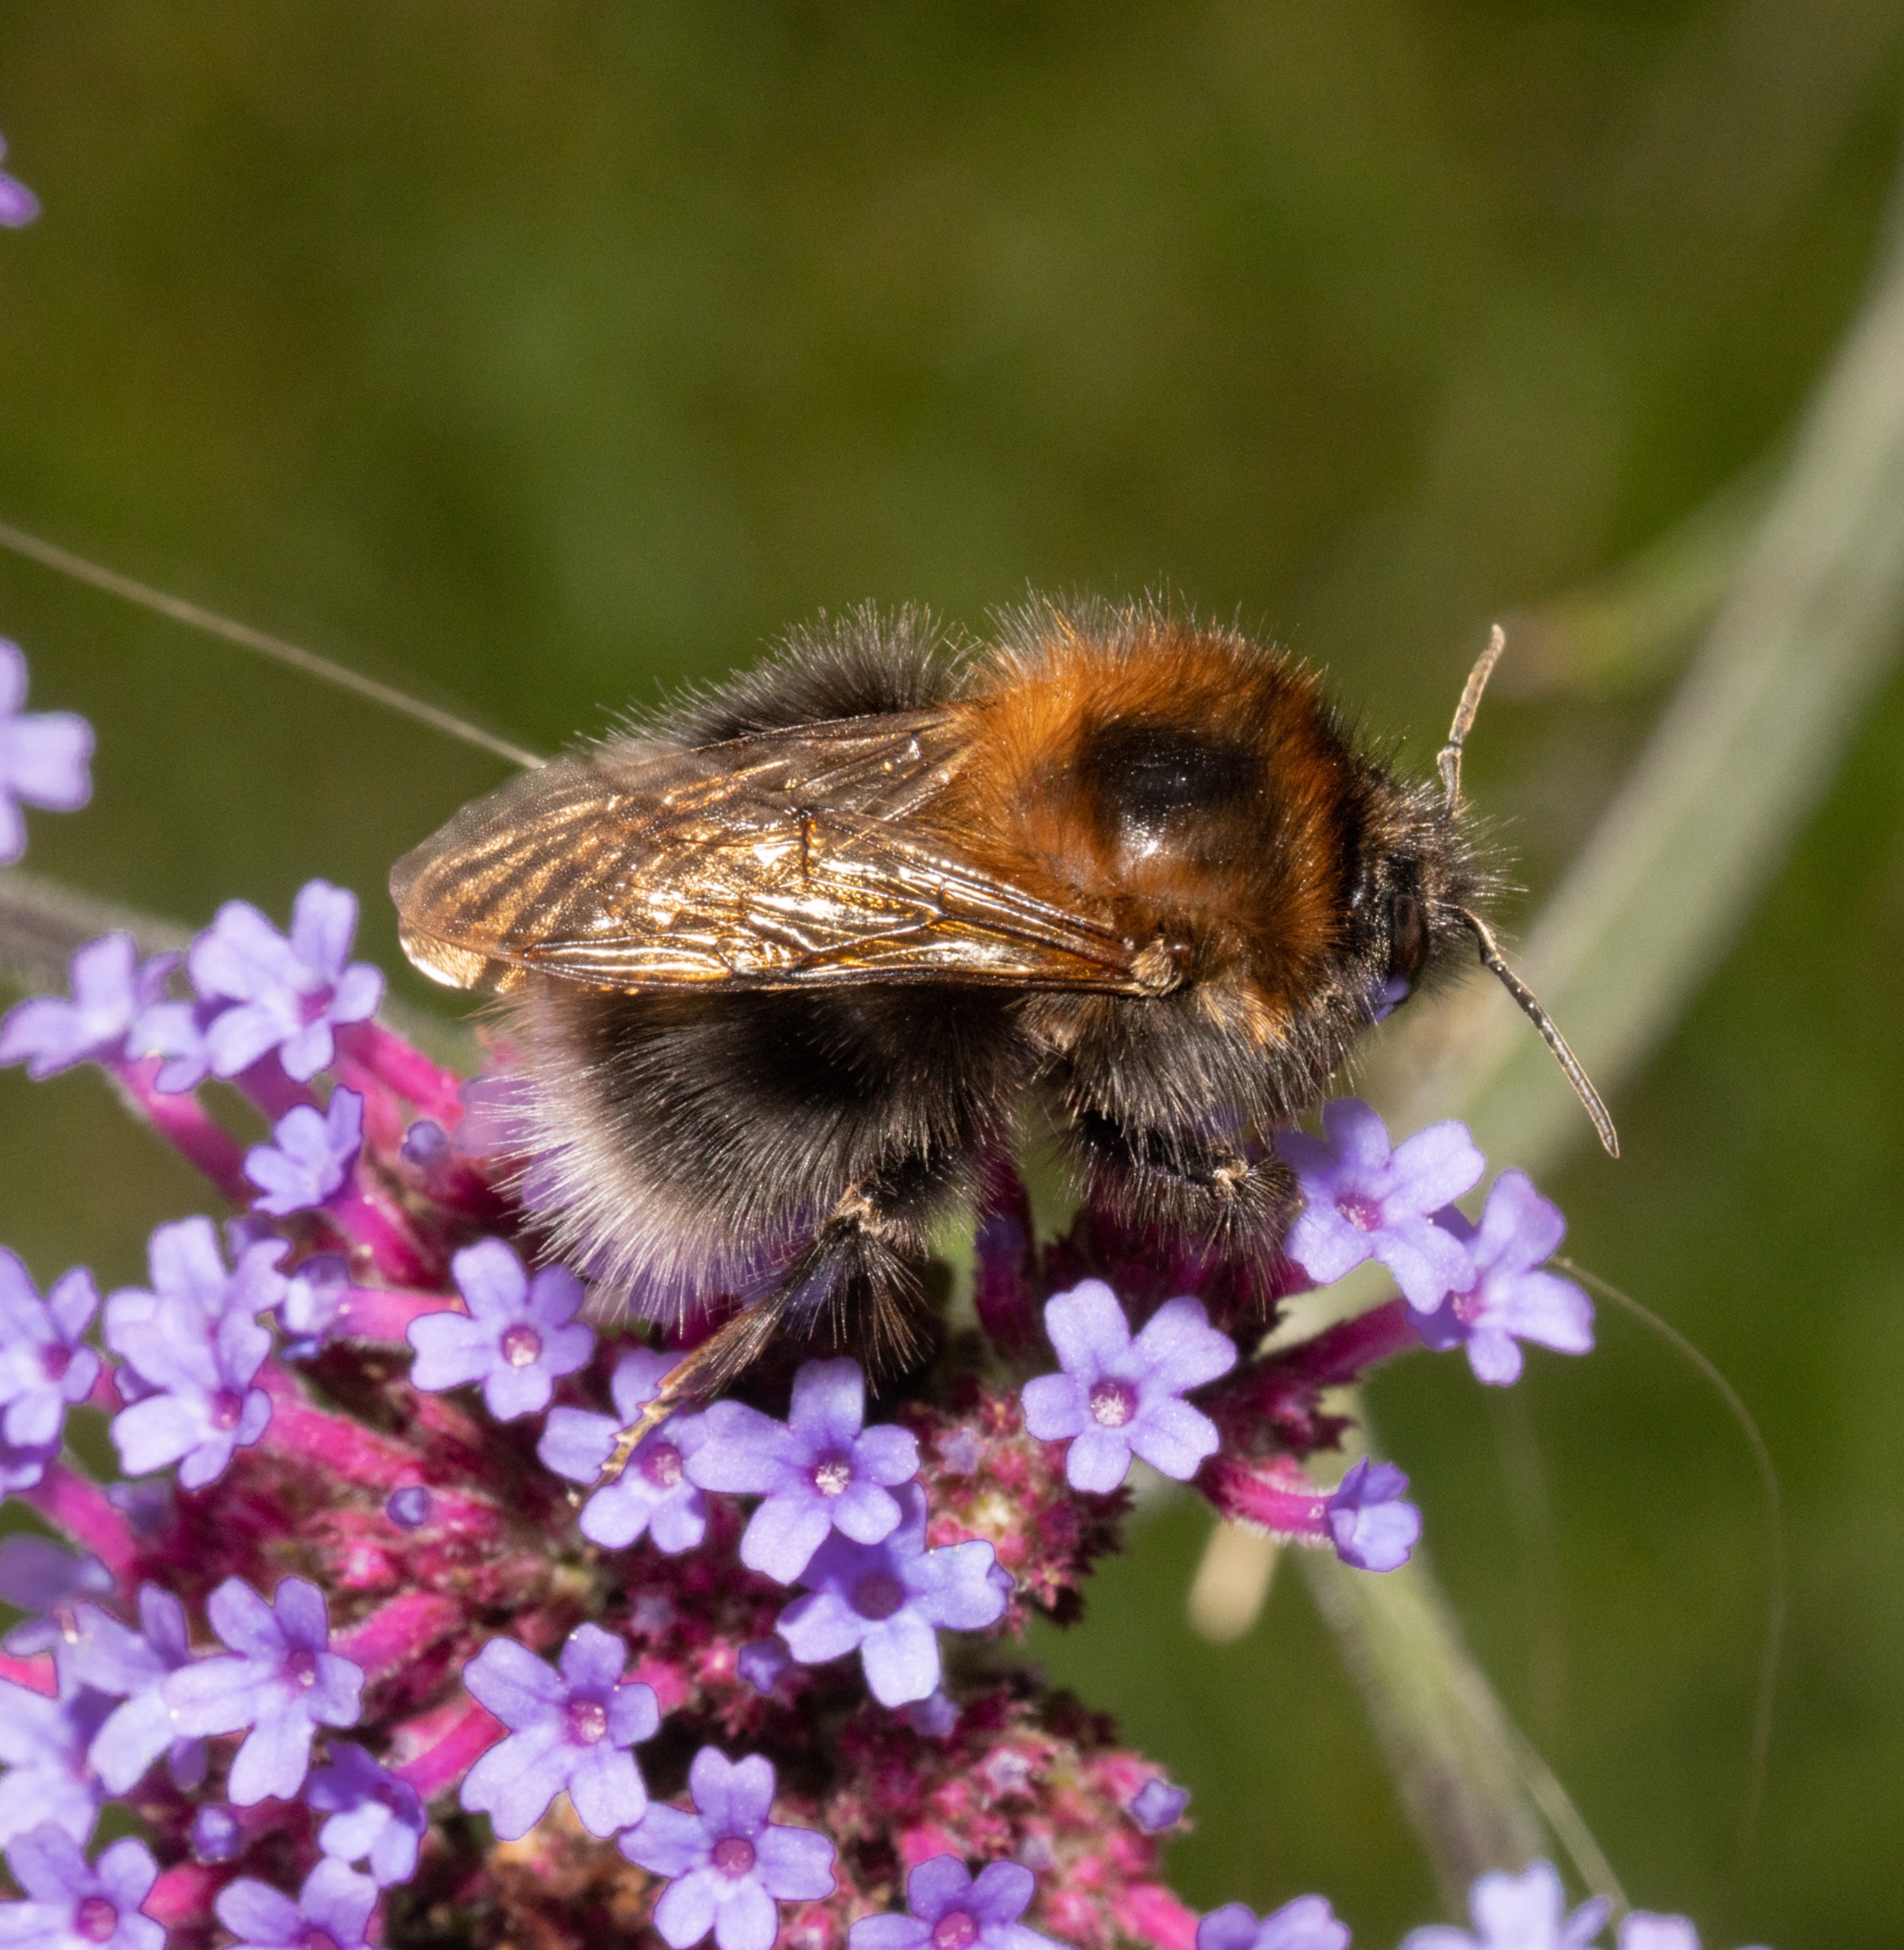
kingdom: Animalia
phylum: Arthropoda
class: Insecta
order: Hymenoptera
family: Apidae
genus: Bombus
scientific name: Bombus hypnorum
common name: Hushumle
